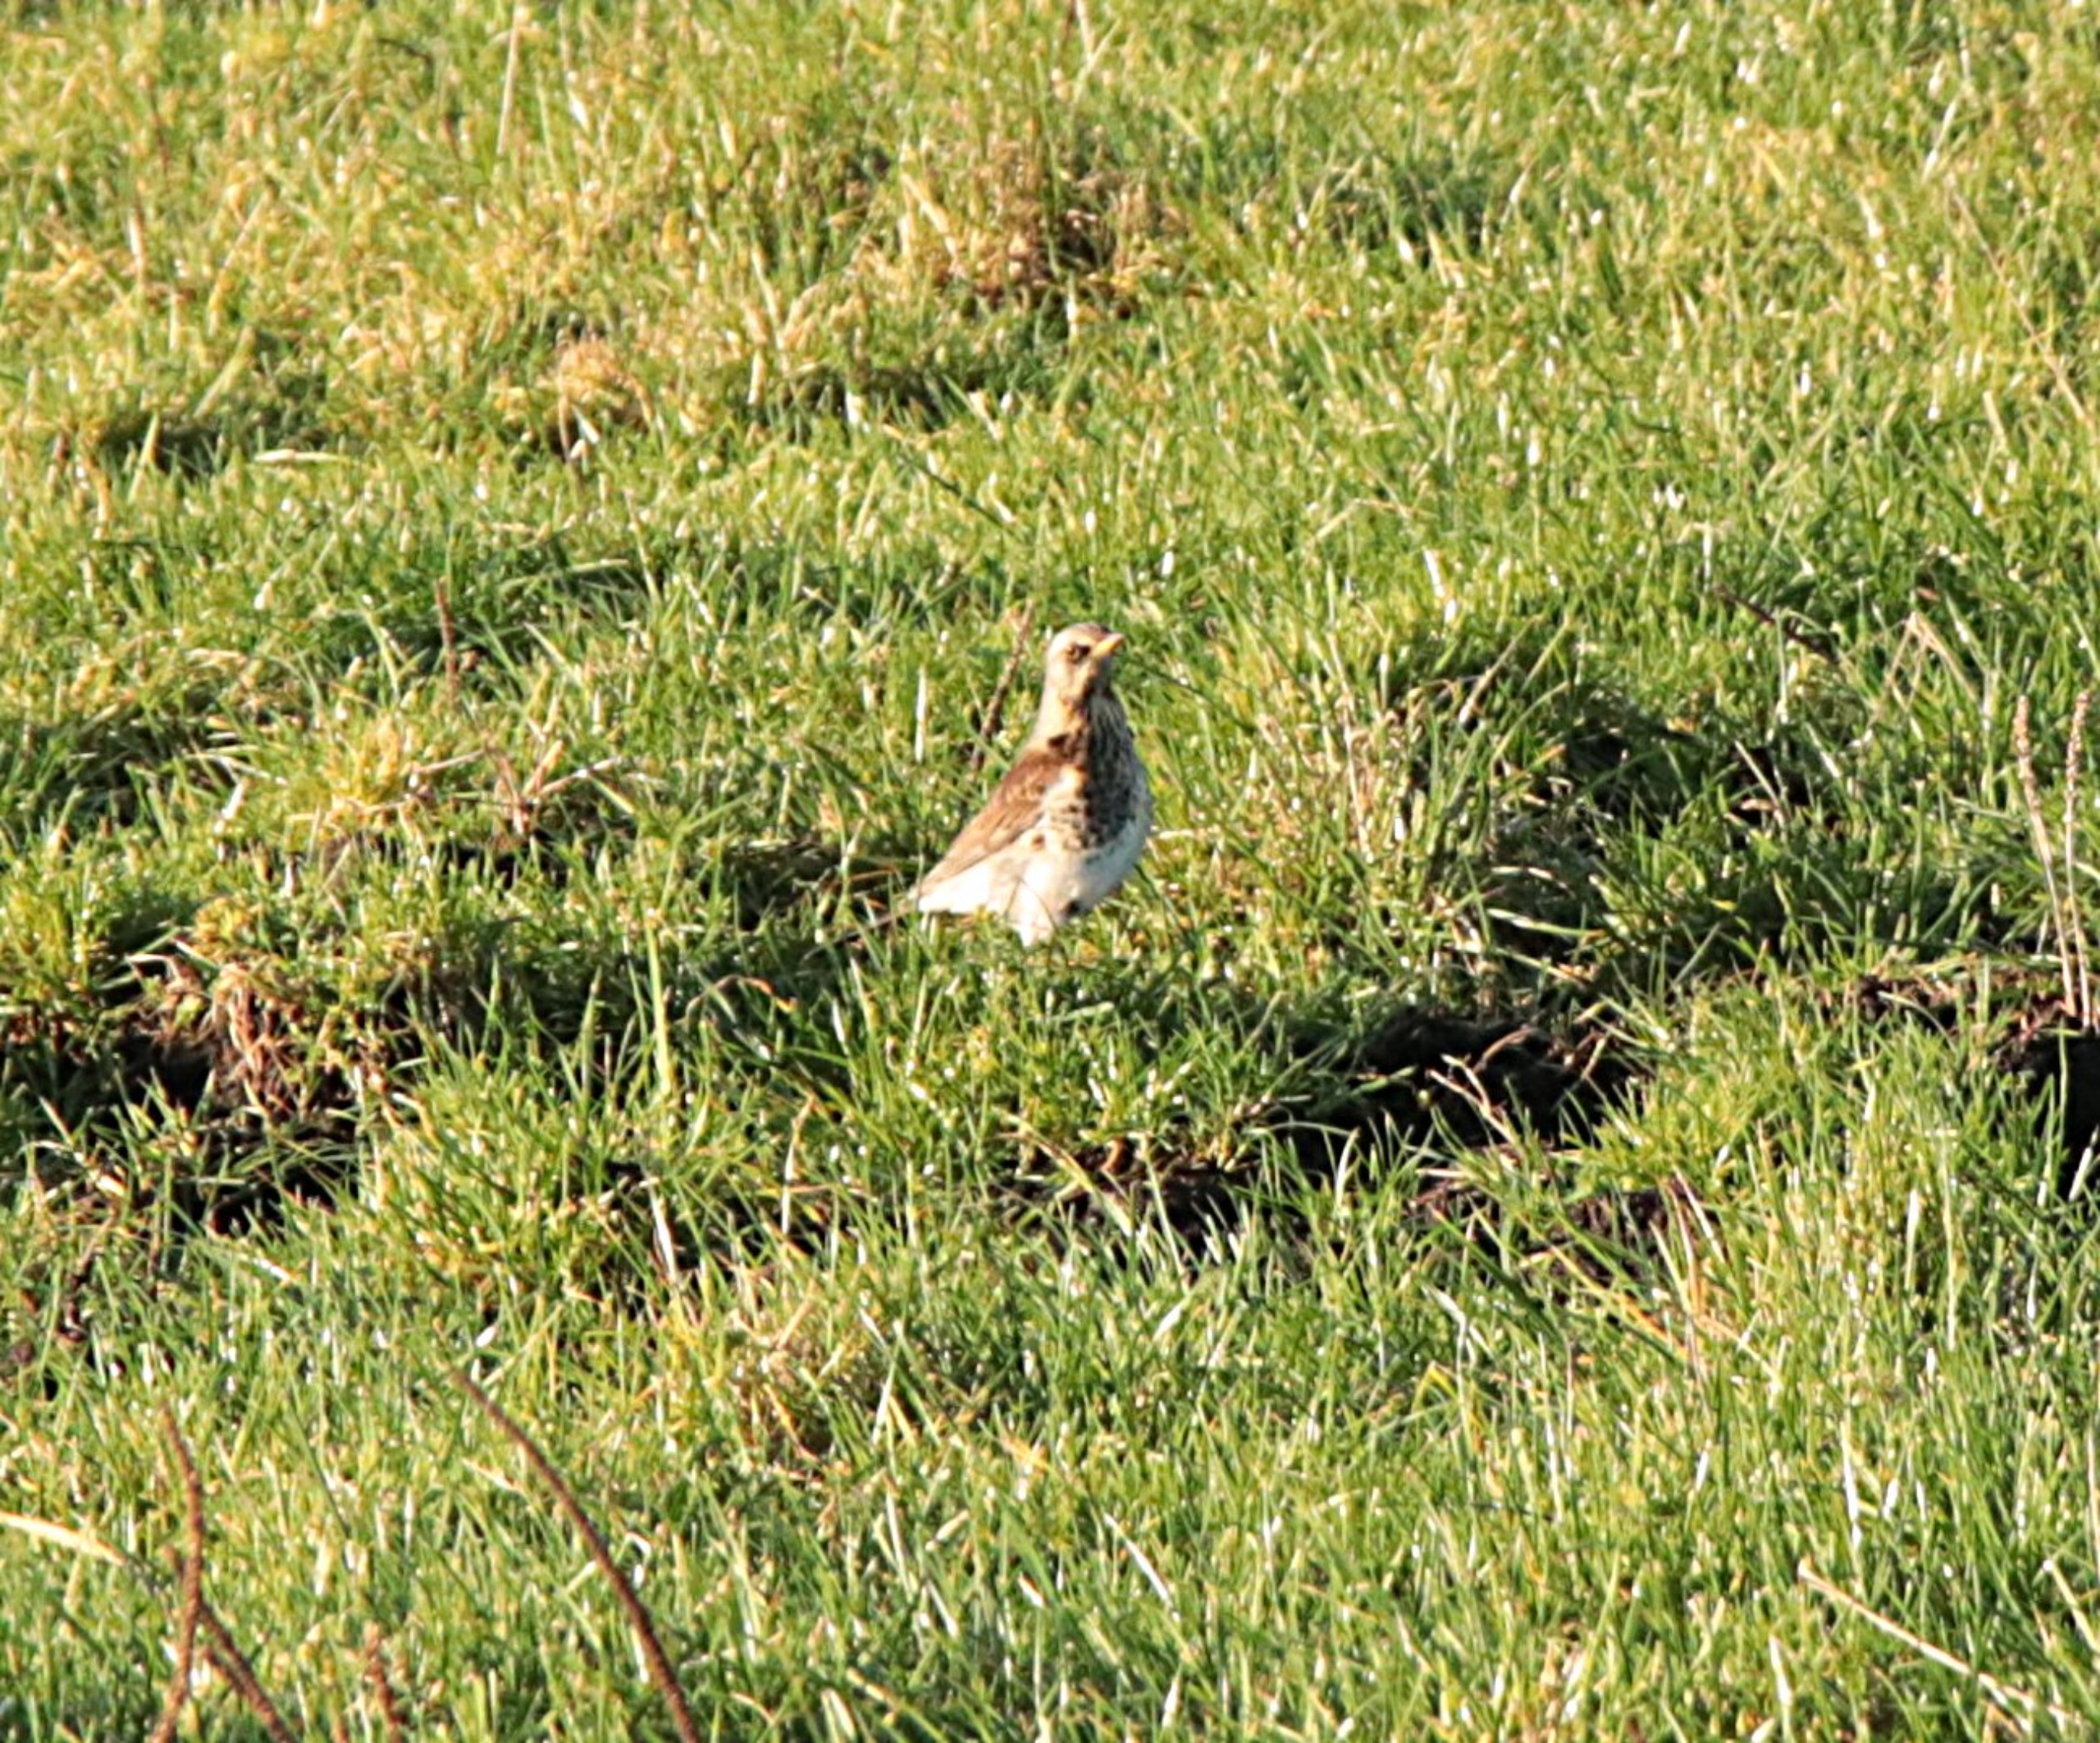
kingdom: Animalia
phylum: Chordata
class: Aves
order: Passeriformes
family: Turdidae
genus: Turdus
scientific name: Turdus pilaris
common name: Sjagger
